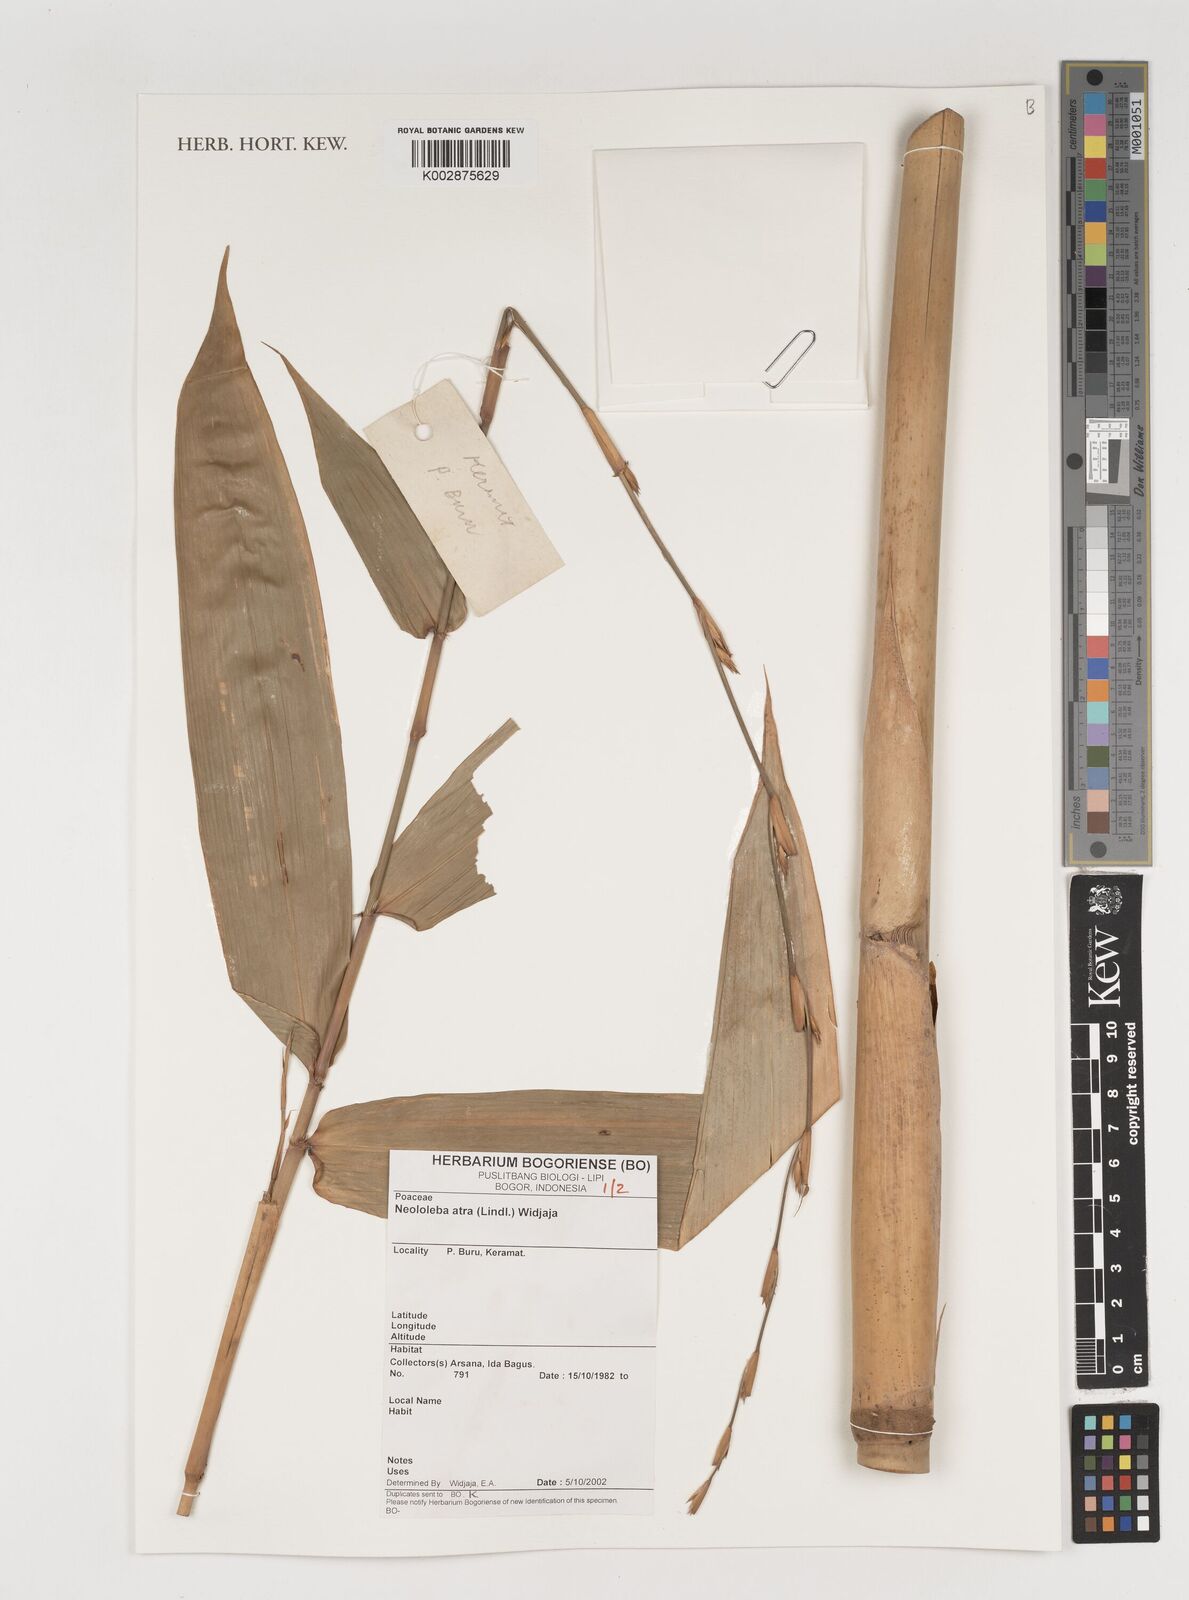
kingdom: Plantae
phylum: Tracheophyta
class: Liliopsida
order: Poales
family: Poaceae
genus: Neololeba
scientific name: Neololeba atra
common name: Cape bamboo
